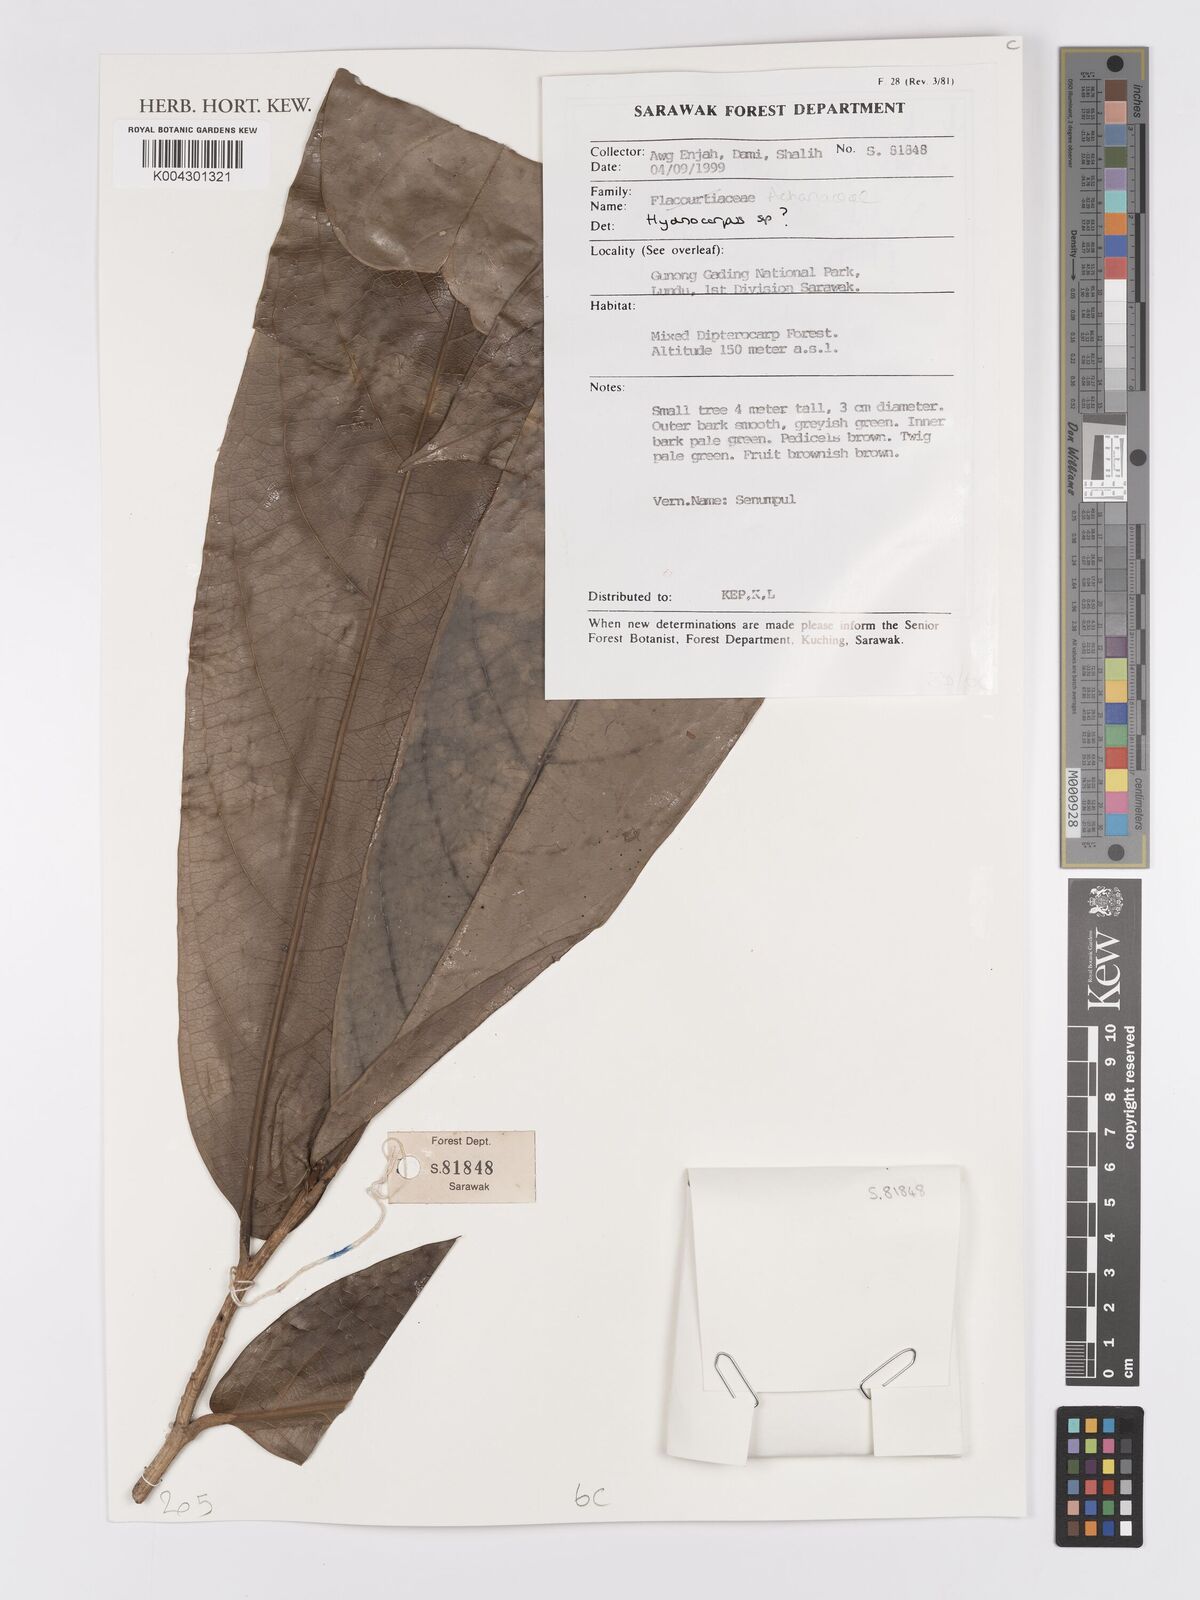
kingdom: Plantae
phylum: Tracheophyta
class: Magnoliopsida
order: Malpighiales
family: Achariaceae
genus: Hydnocarpus
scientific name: Hydnocarpus
